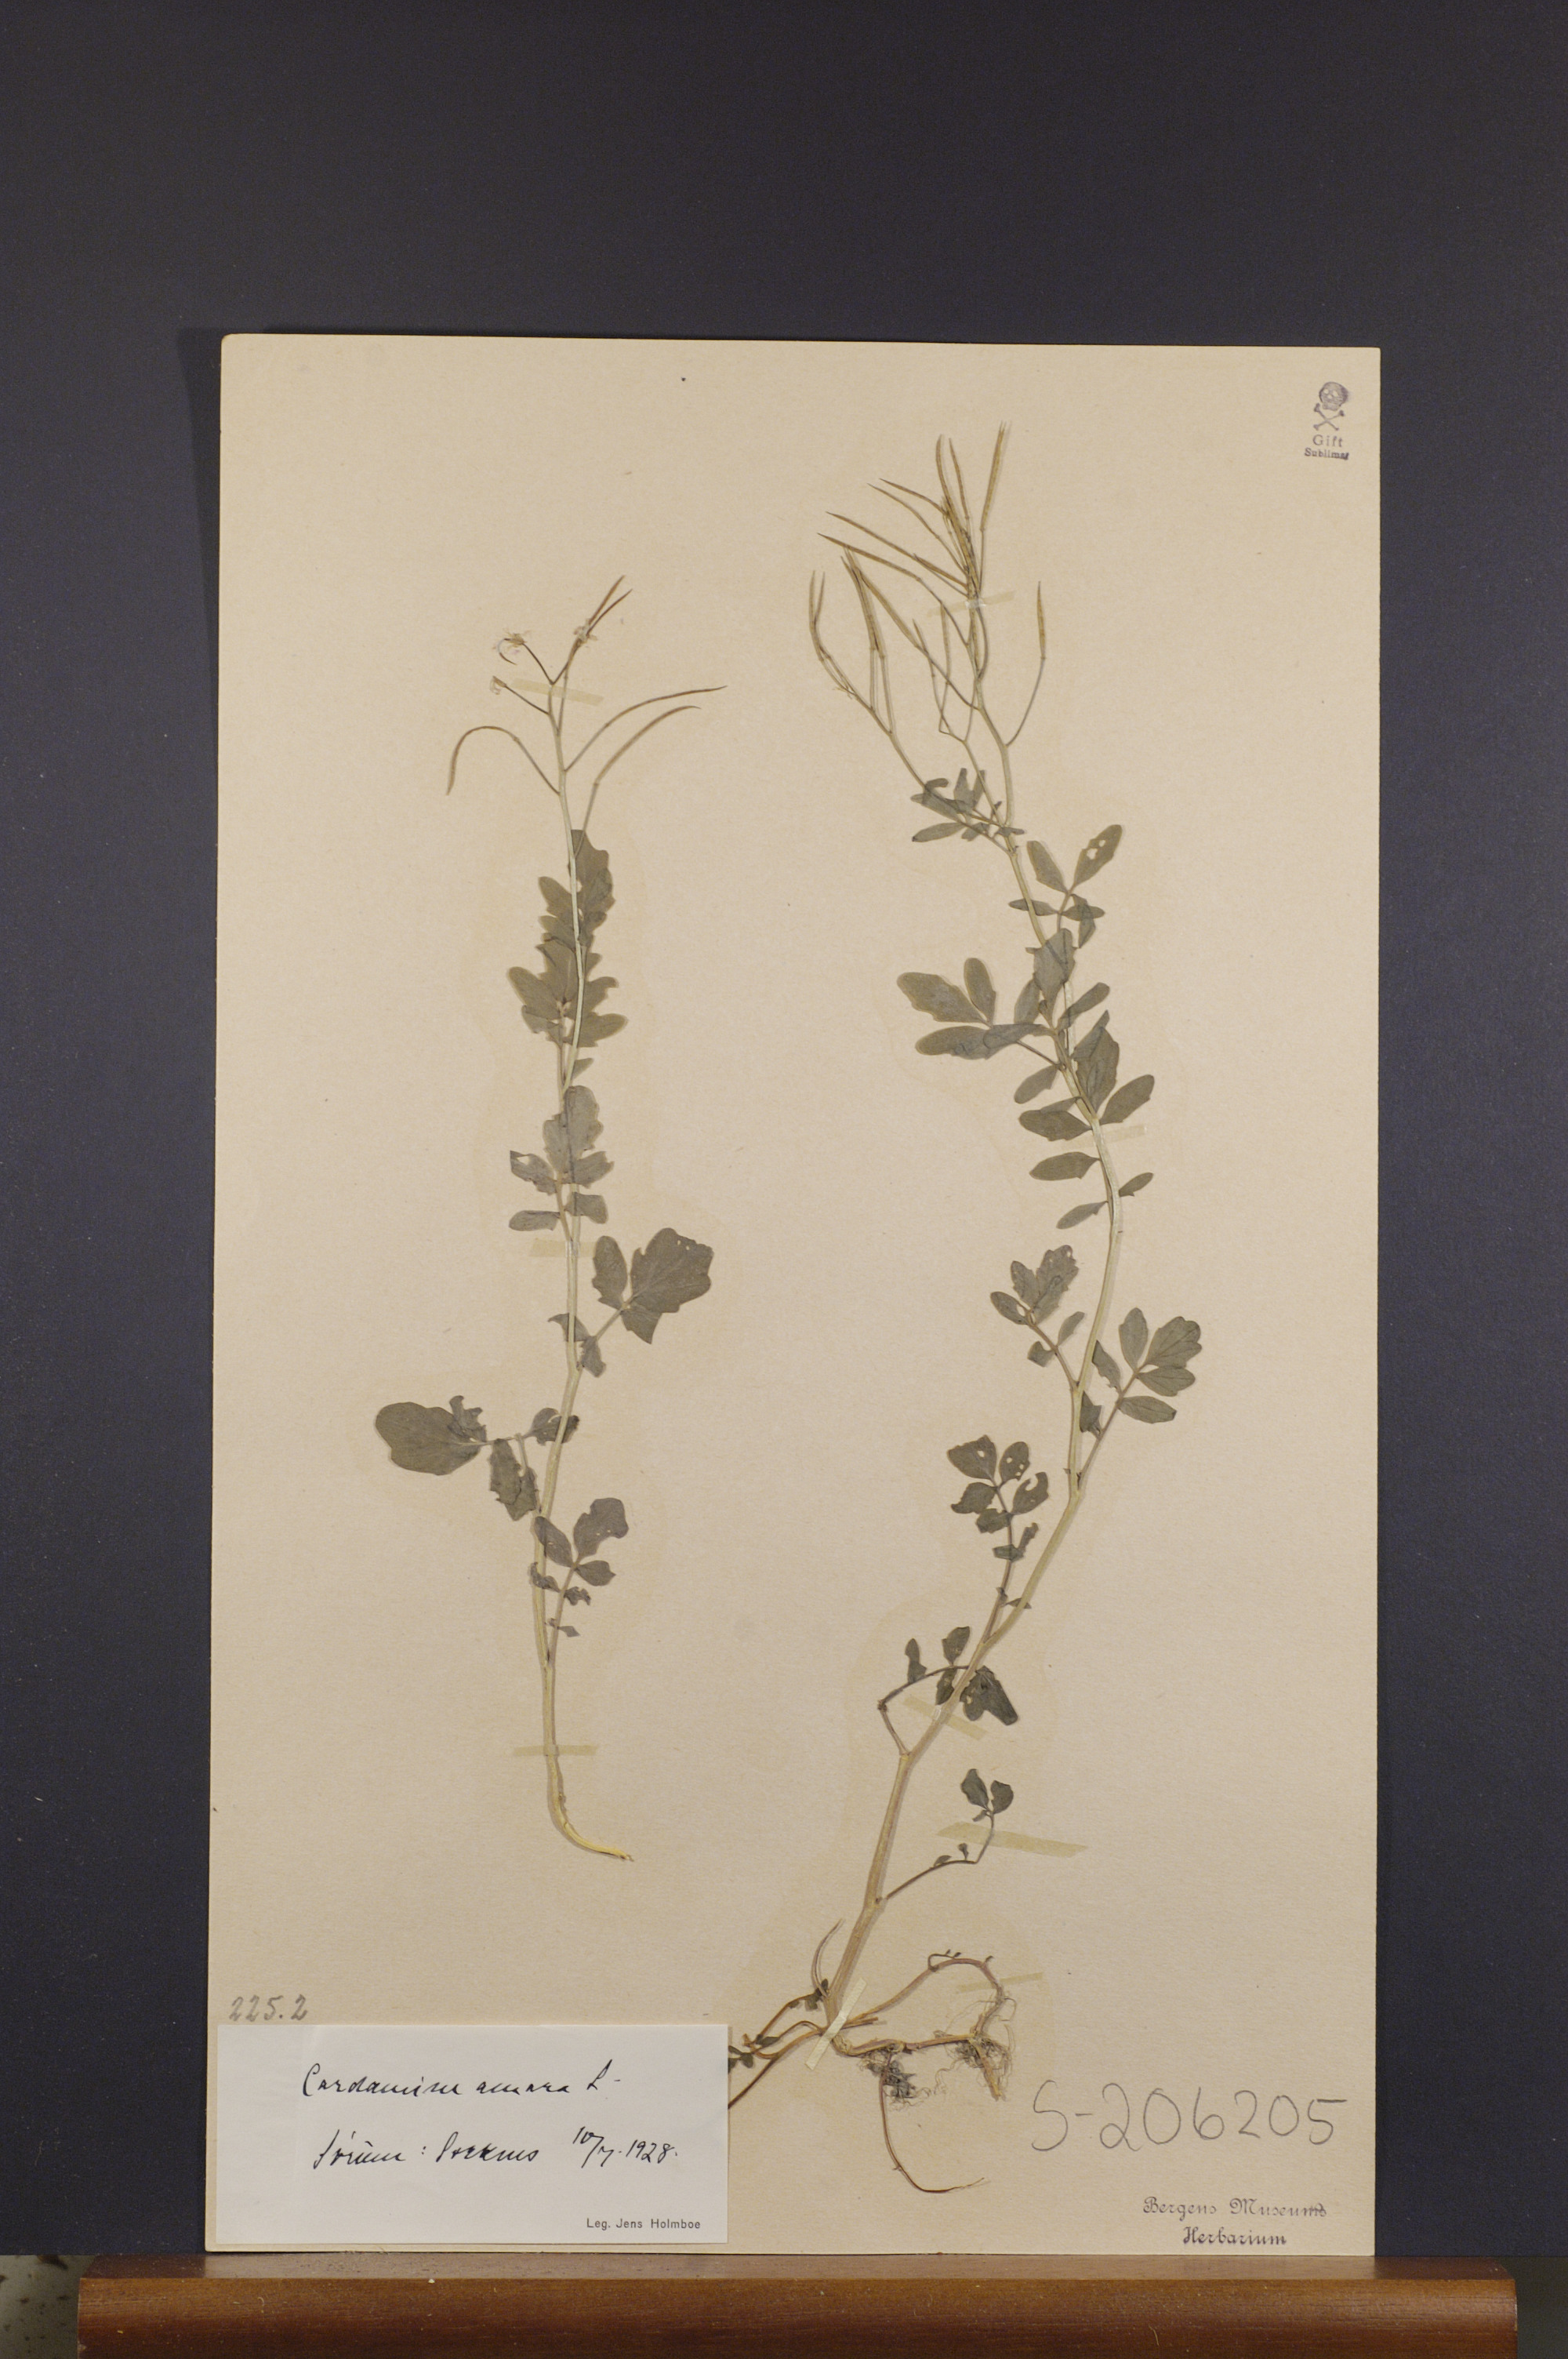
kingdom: Plantae
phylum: Tracheophyta
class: Magnoliopsida
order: Brassicales
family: Brassicaceae
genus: Cardamine
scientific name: Cardamine amara
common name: Large bitter-cress
